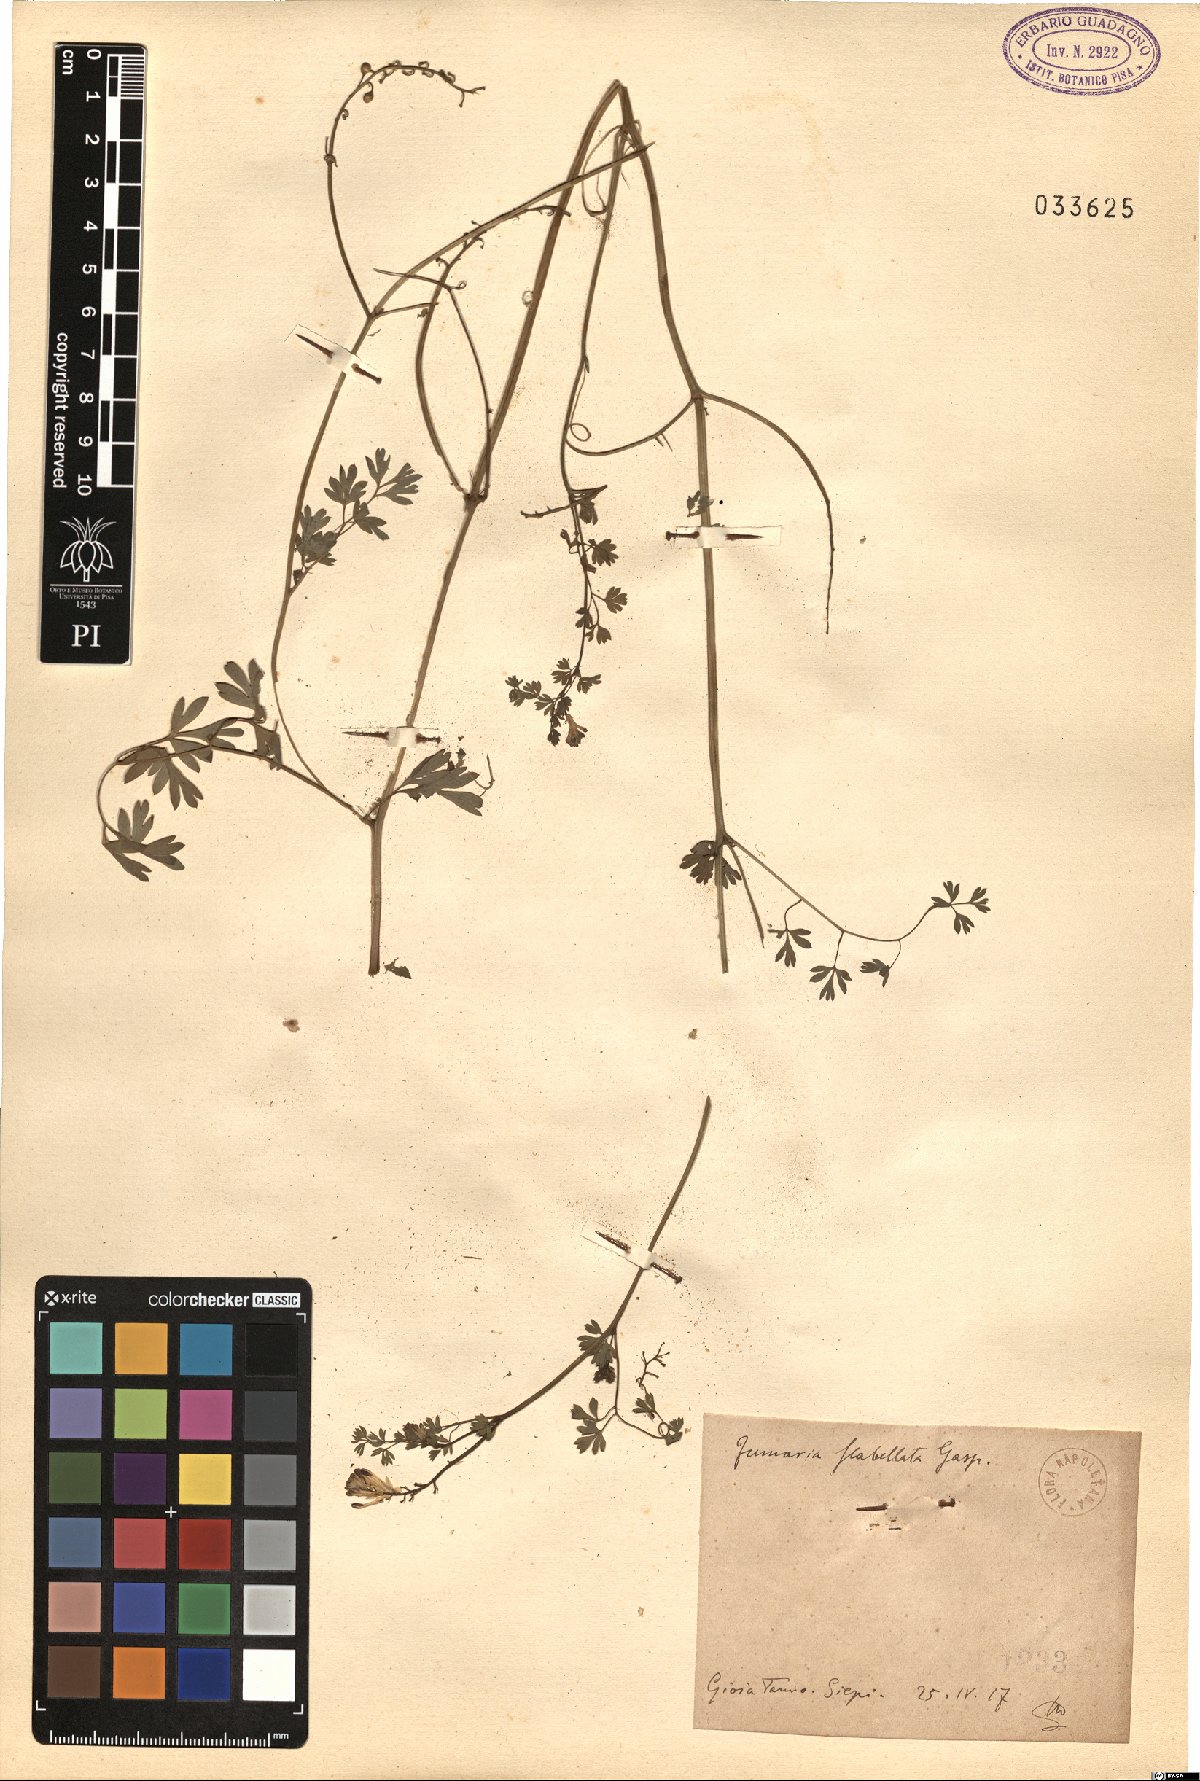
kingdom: Plantae
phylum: Tracheophyta
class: Magnoliopsida
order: Ranunculales
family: Papaveraceae
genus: Fumaria
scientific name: Fumaria flabellata
